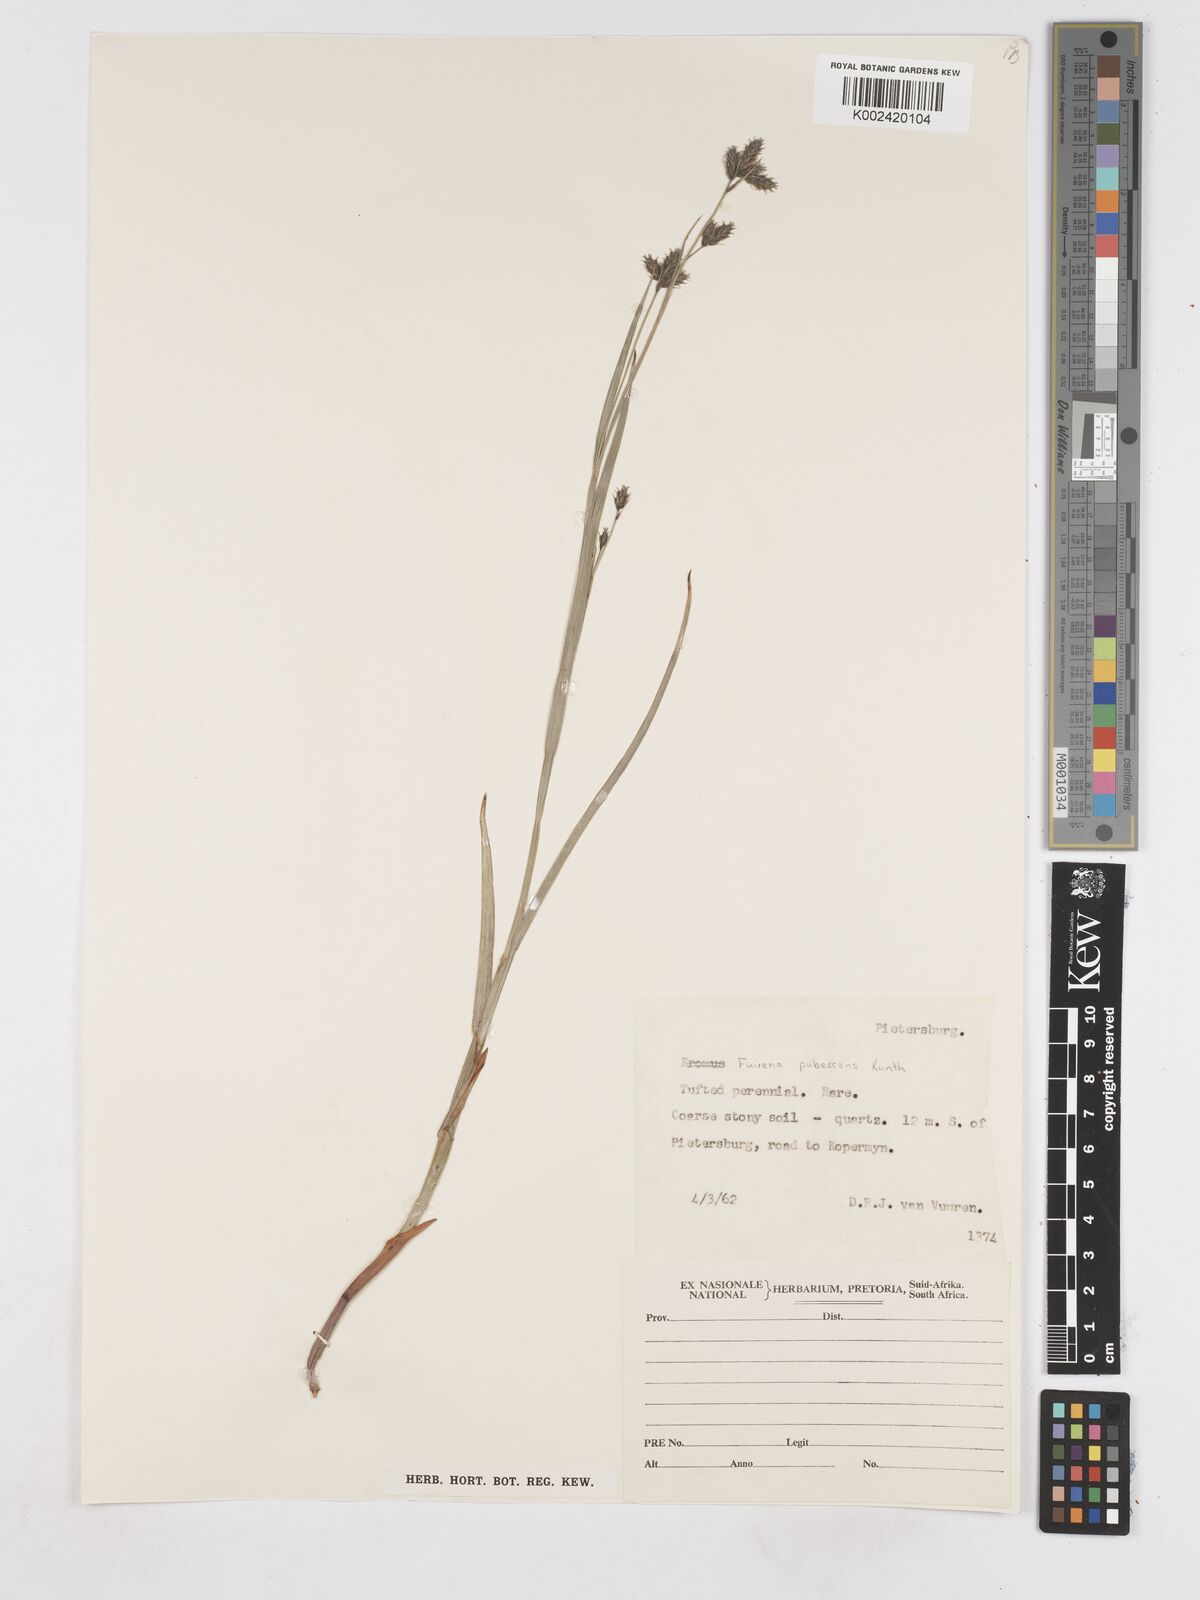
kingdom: Plantae
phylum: Tracheophyta
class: Liliopsida
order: Poales
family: Cyperaceae
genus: Fuirena
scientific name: Fuirena pubescens
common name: Hairy sedge
